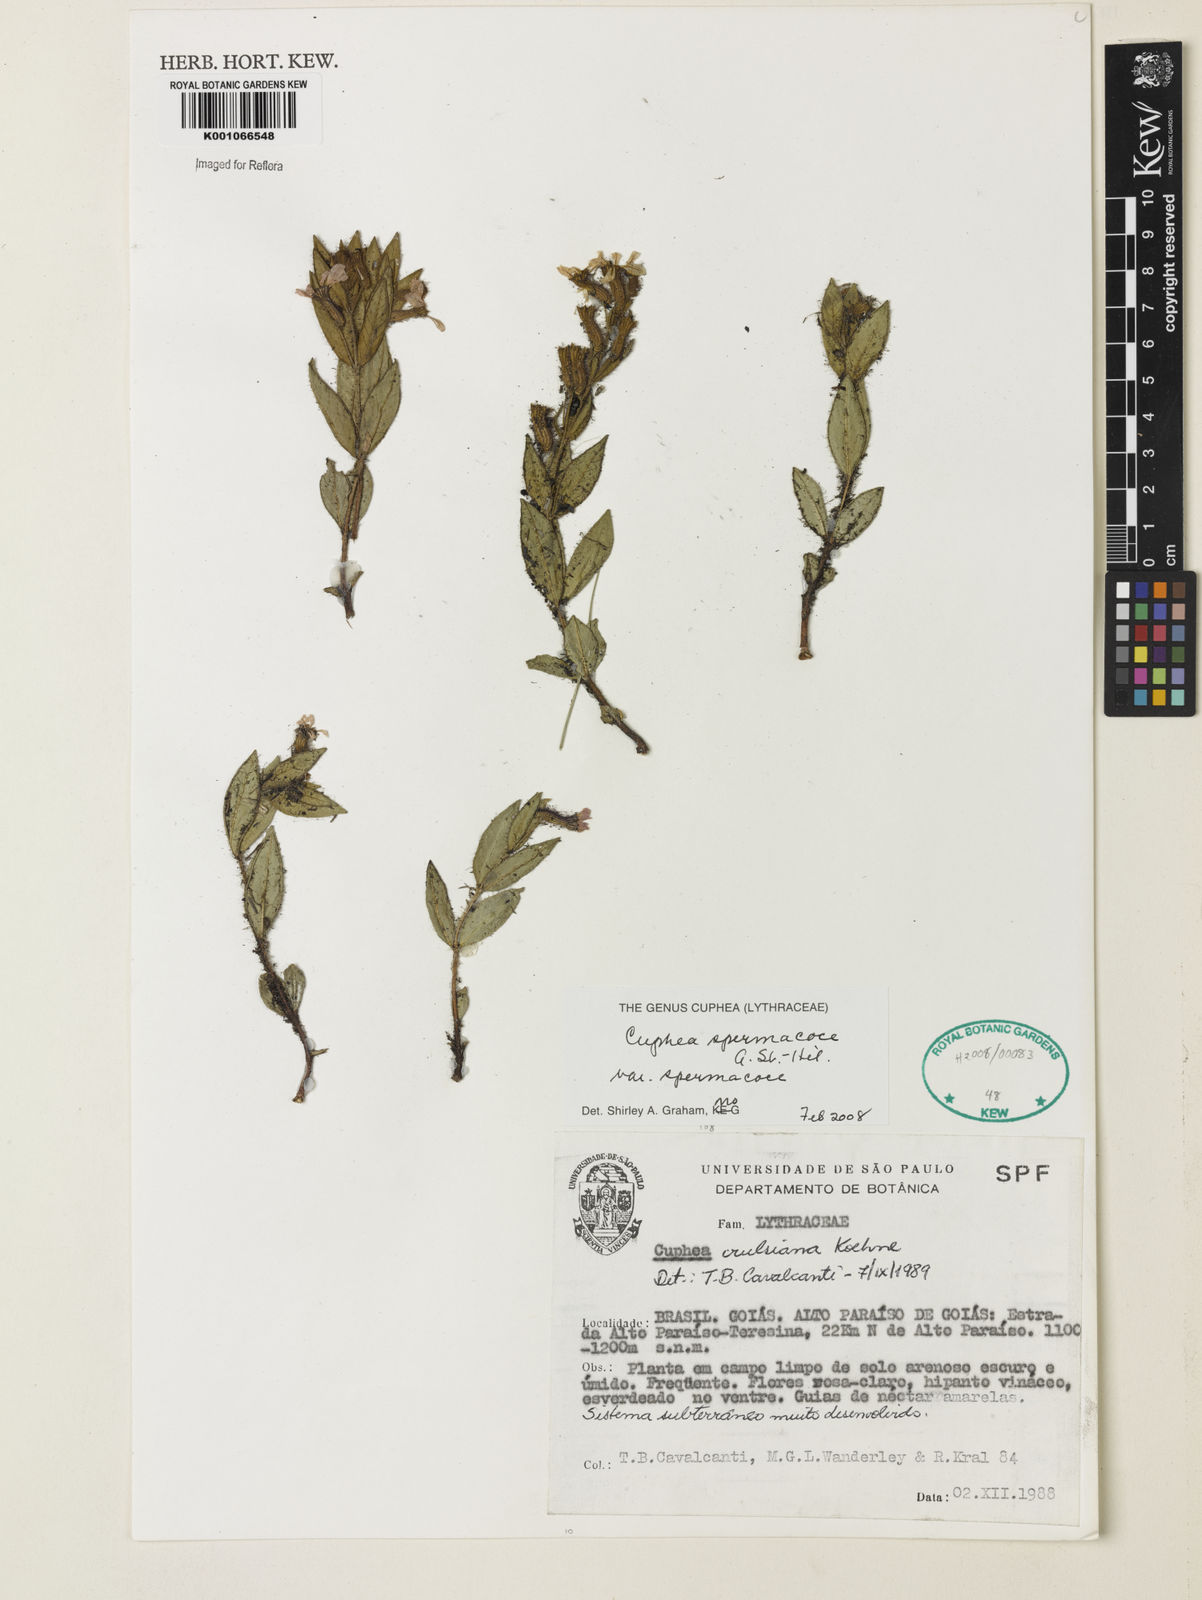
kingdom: Plantae
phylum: Tracheophyta
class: Magnoliopsida
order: Myrtales
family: Lythraceae
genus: Cuphea
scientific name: Cuphea spermacoce
